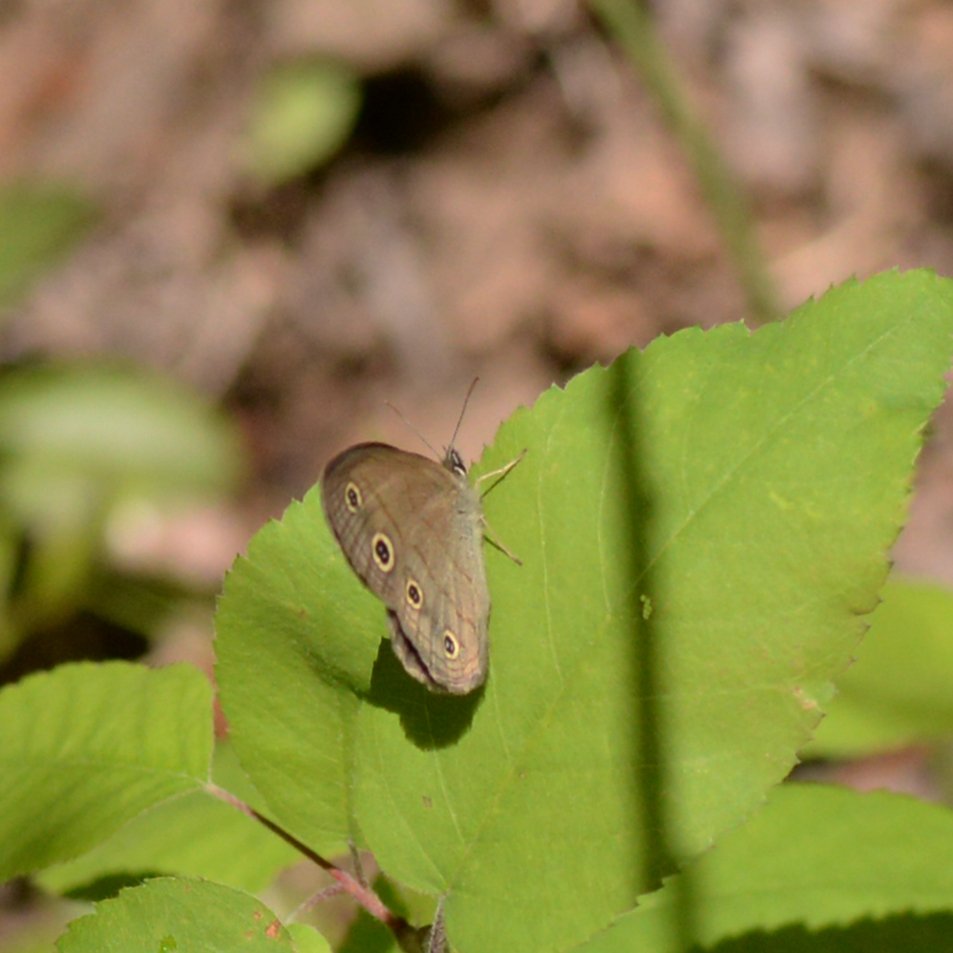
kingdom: Animalia
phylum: Arthropoda
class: Insecta
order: Lepidoptera
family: Nymphalidae
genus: Euptychia
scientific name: Euptychia cymela
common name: Little Wood Satyr
